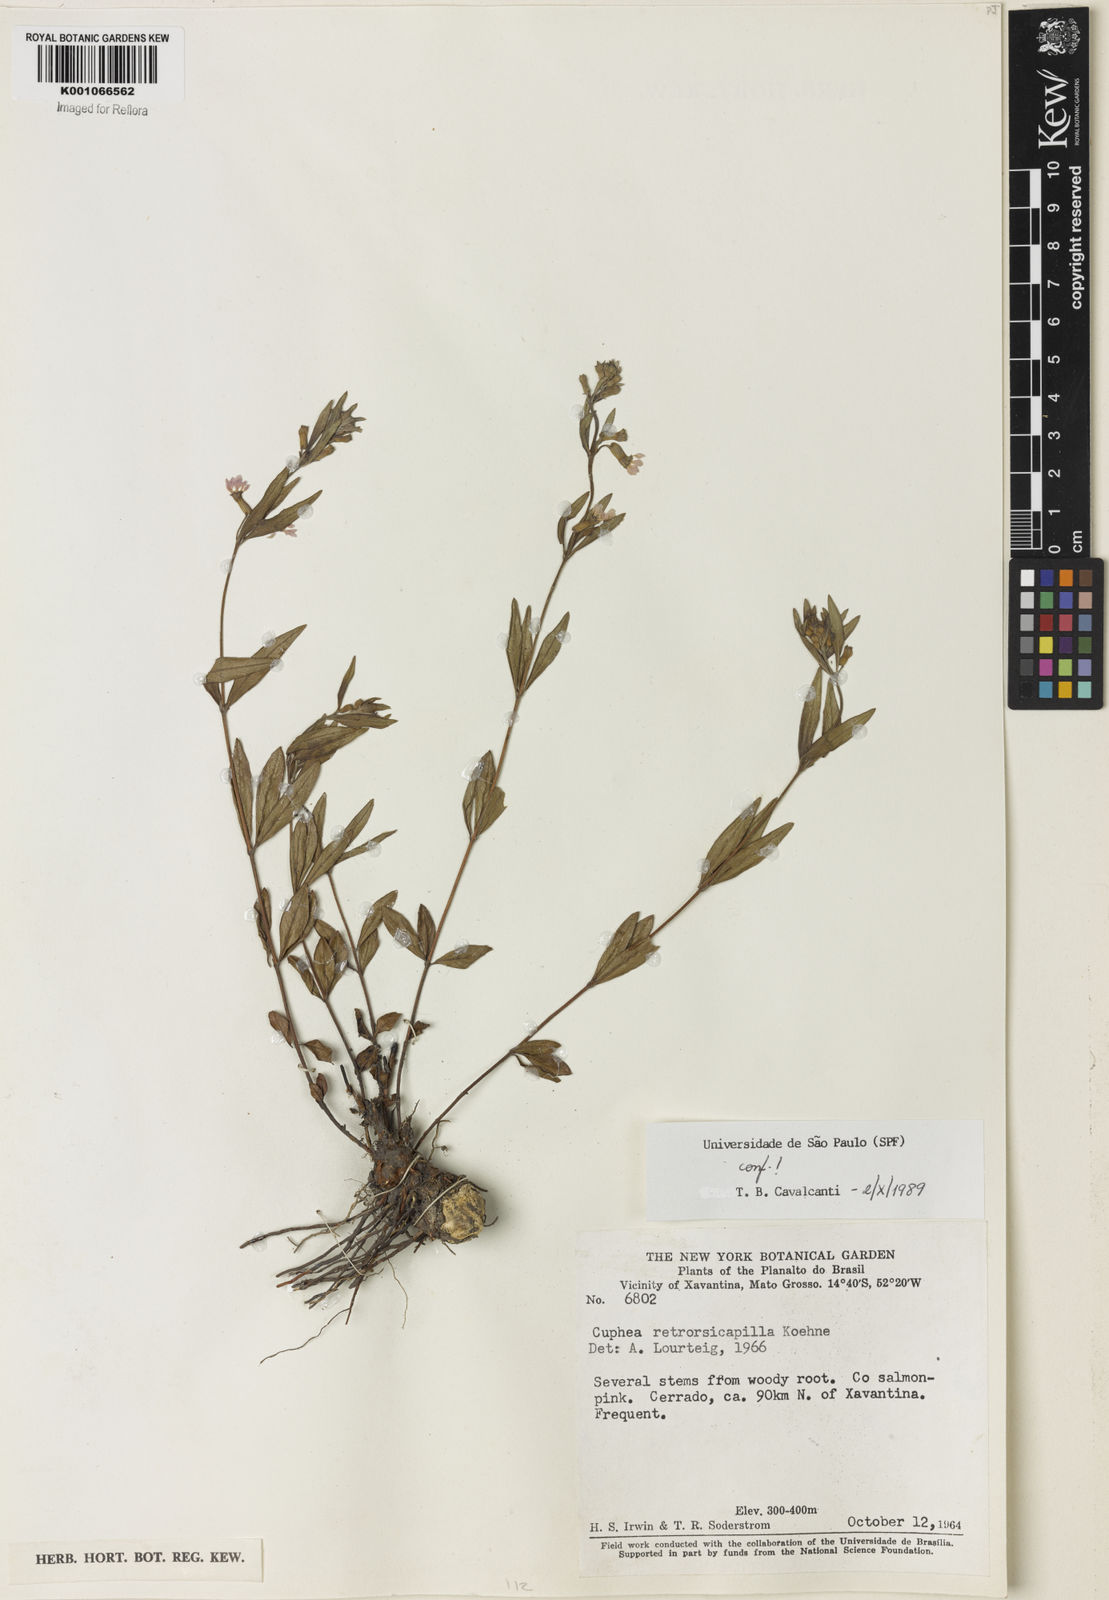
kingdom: Plantae
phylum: Tracheophyta
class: Magnoliopsida
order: Myrtales
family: Lythraceae
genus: Cuphea
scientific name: Cuphea retrorsicapilla
